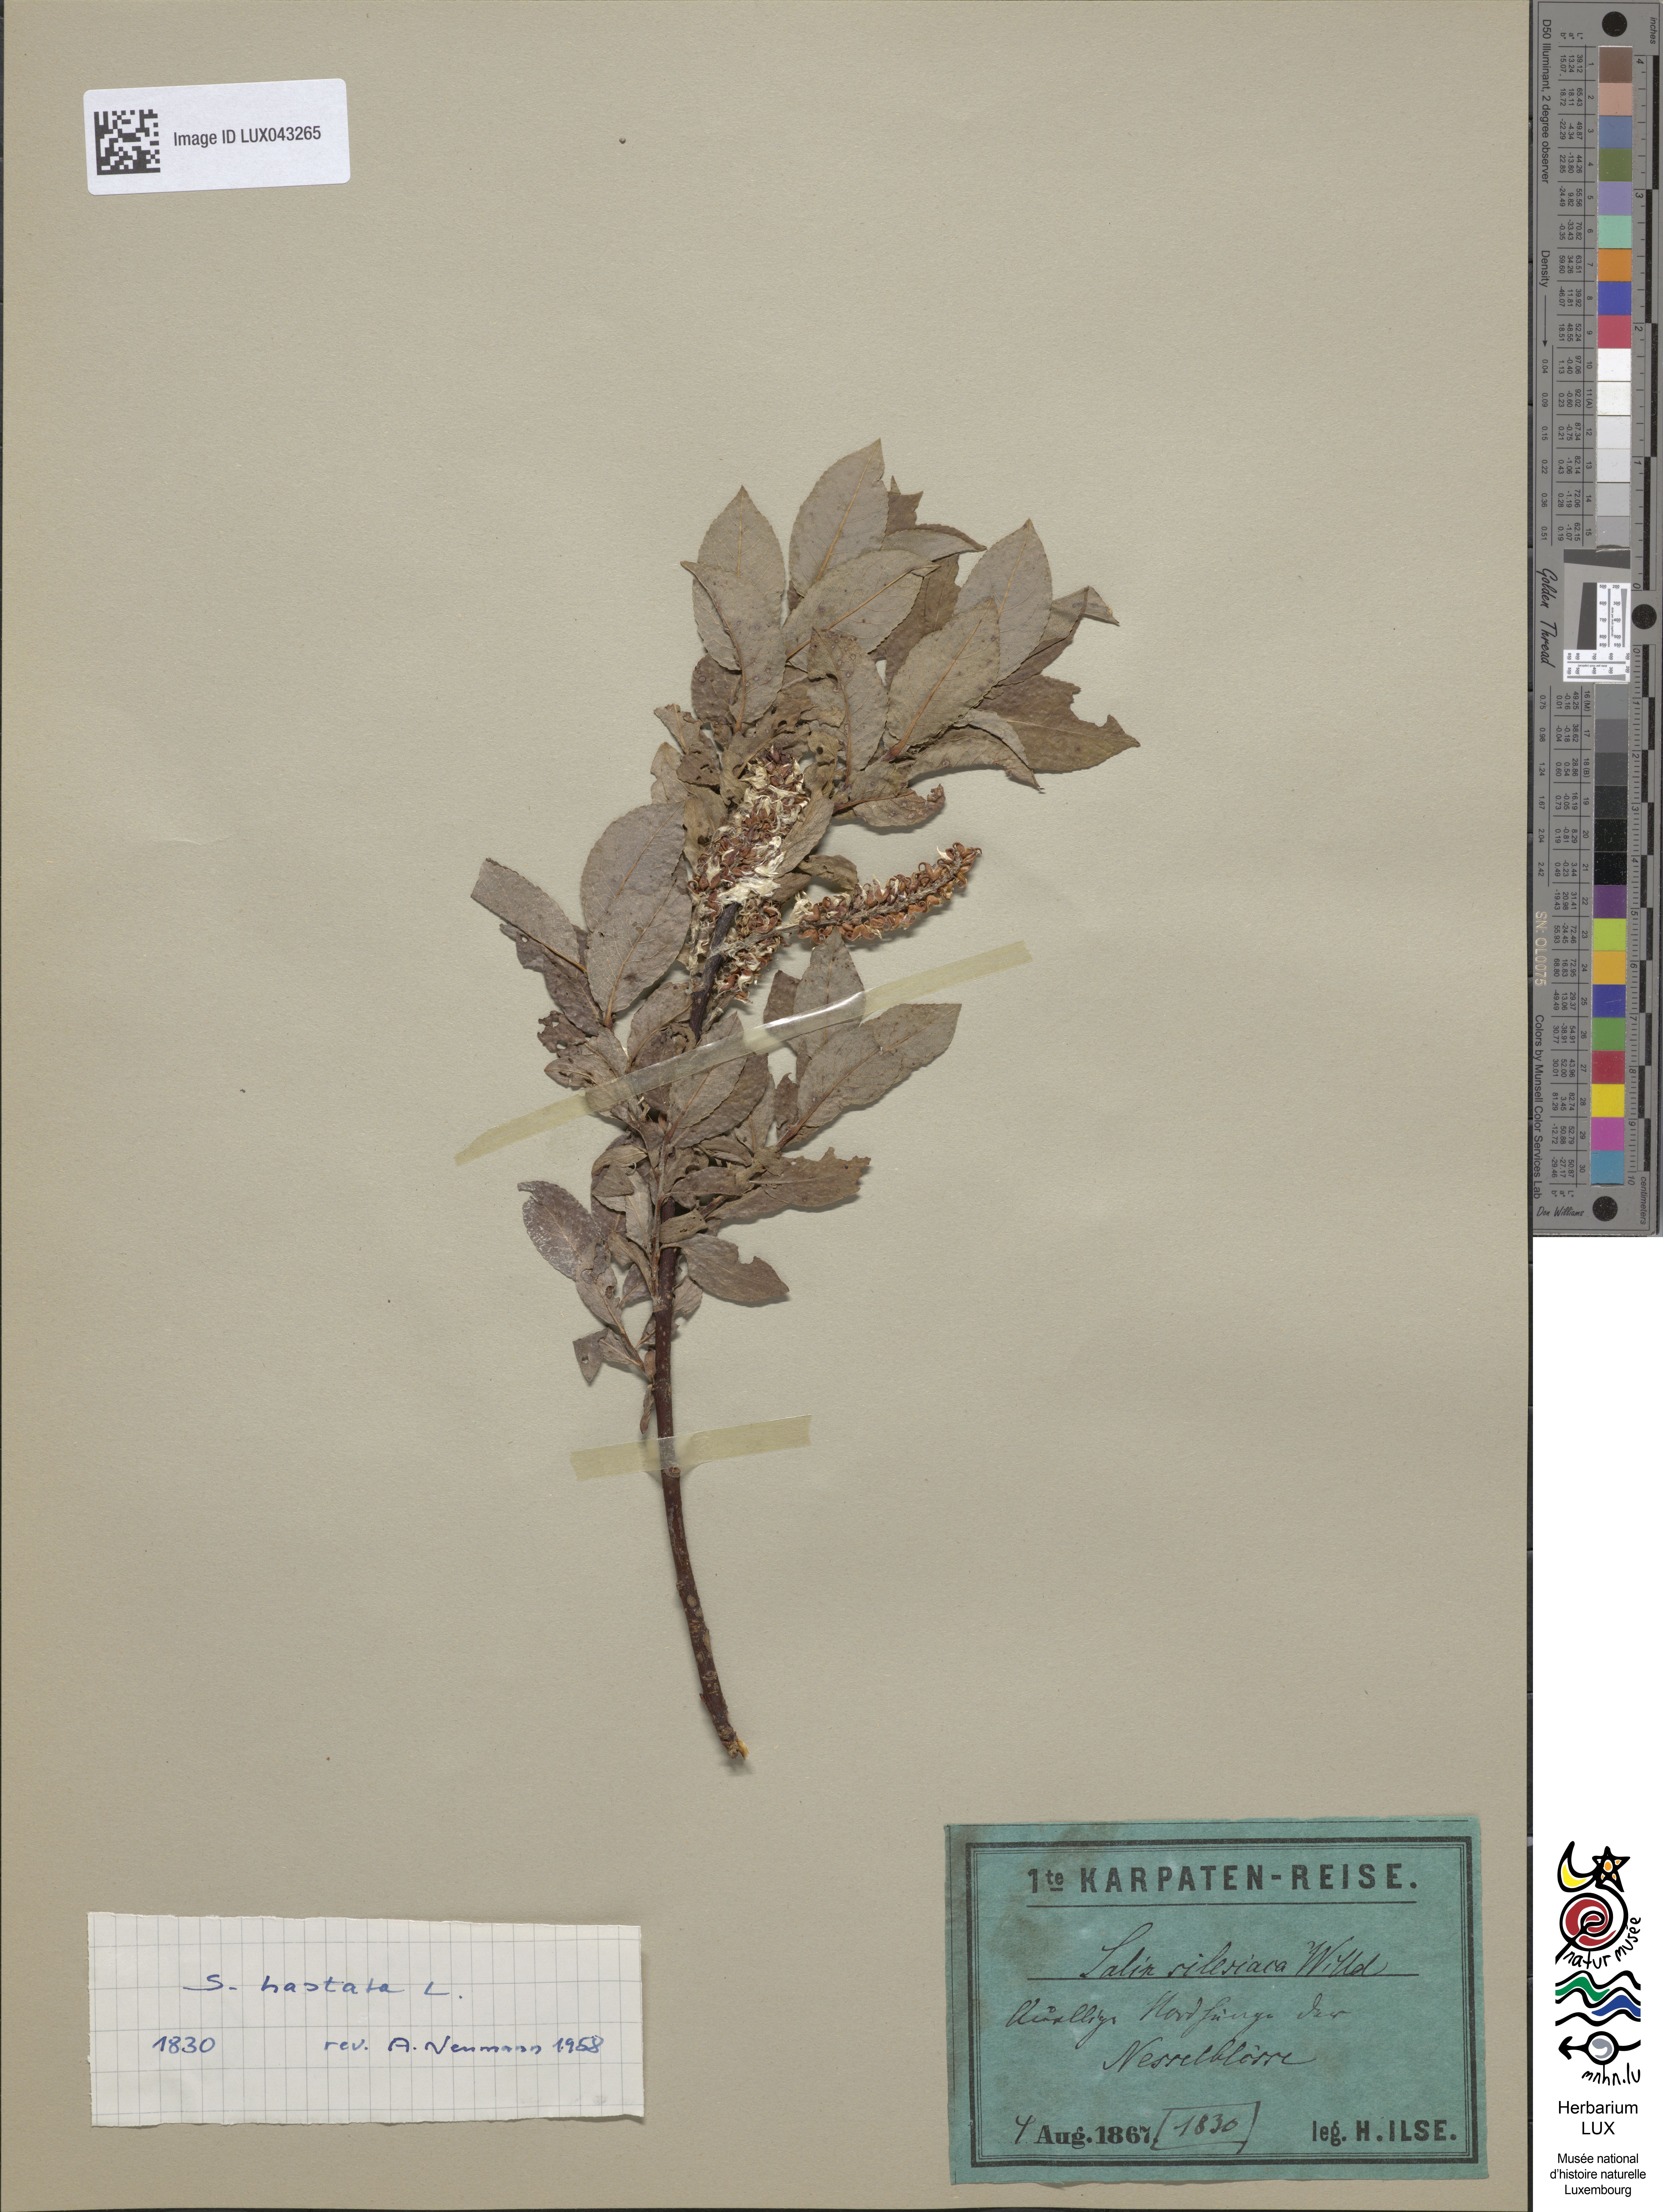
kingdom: Plantae
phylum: Tracheophyta
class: Magnoliopsida
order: Malpighiales
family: Salicaceae
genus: Salix
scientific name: Salix silesiaca
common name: Silesian willow
